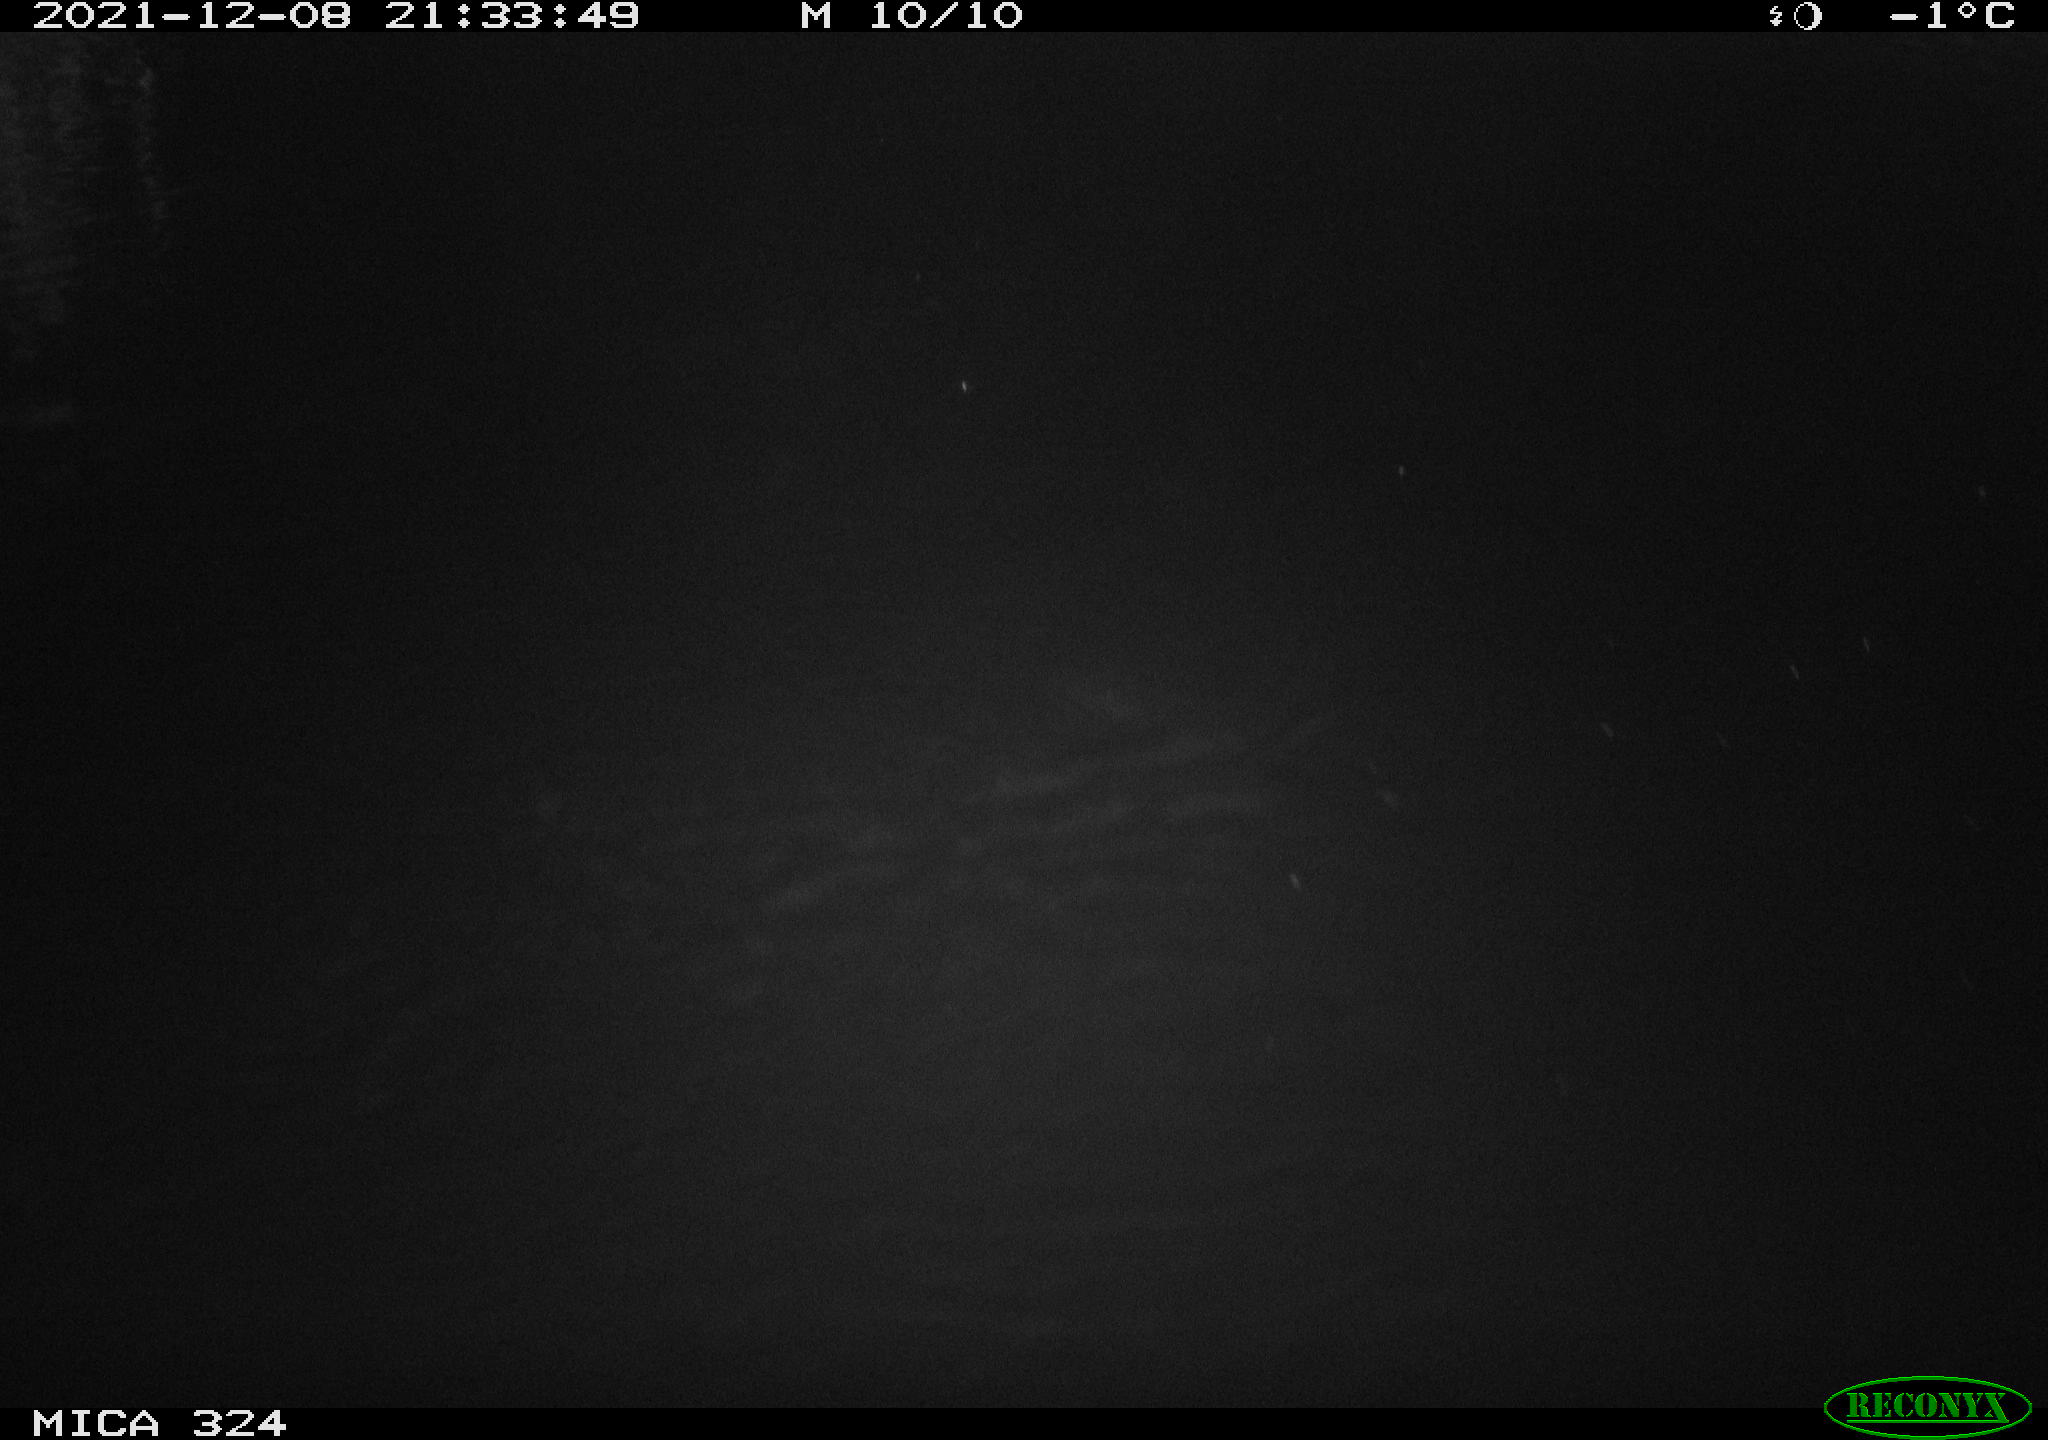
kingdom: Animalia
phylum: Chordata
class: Mammalia
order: Rodentia
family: Cricetidae
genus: Ondatra
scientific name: Ondatra zibethicus
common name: Muskrat
